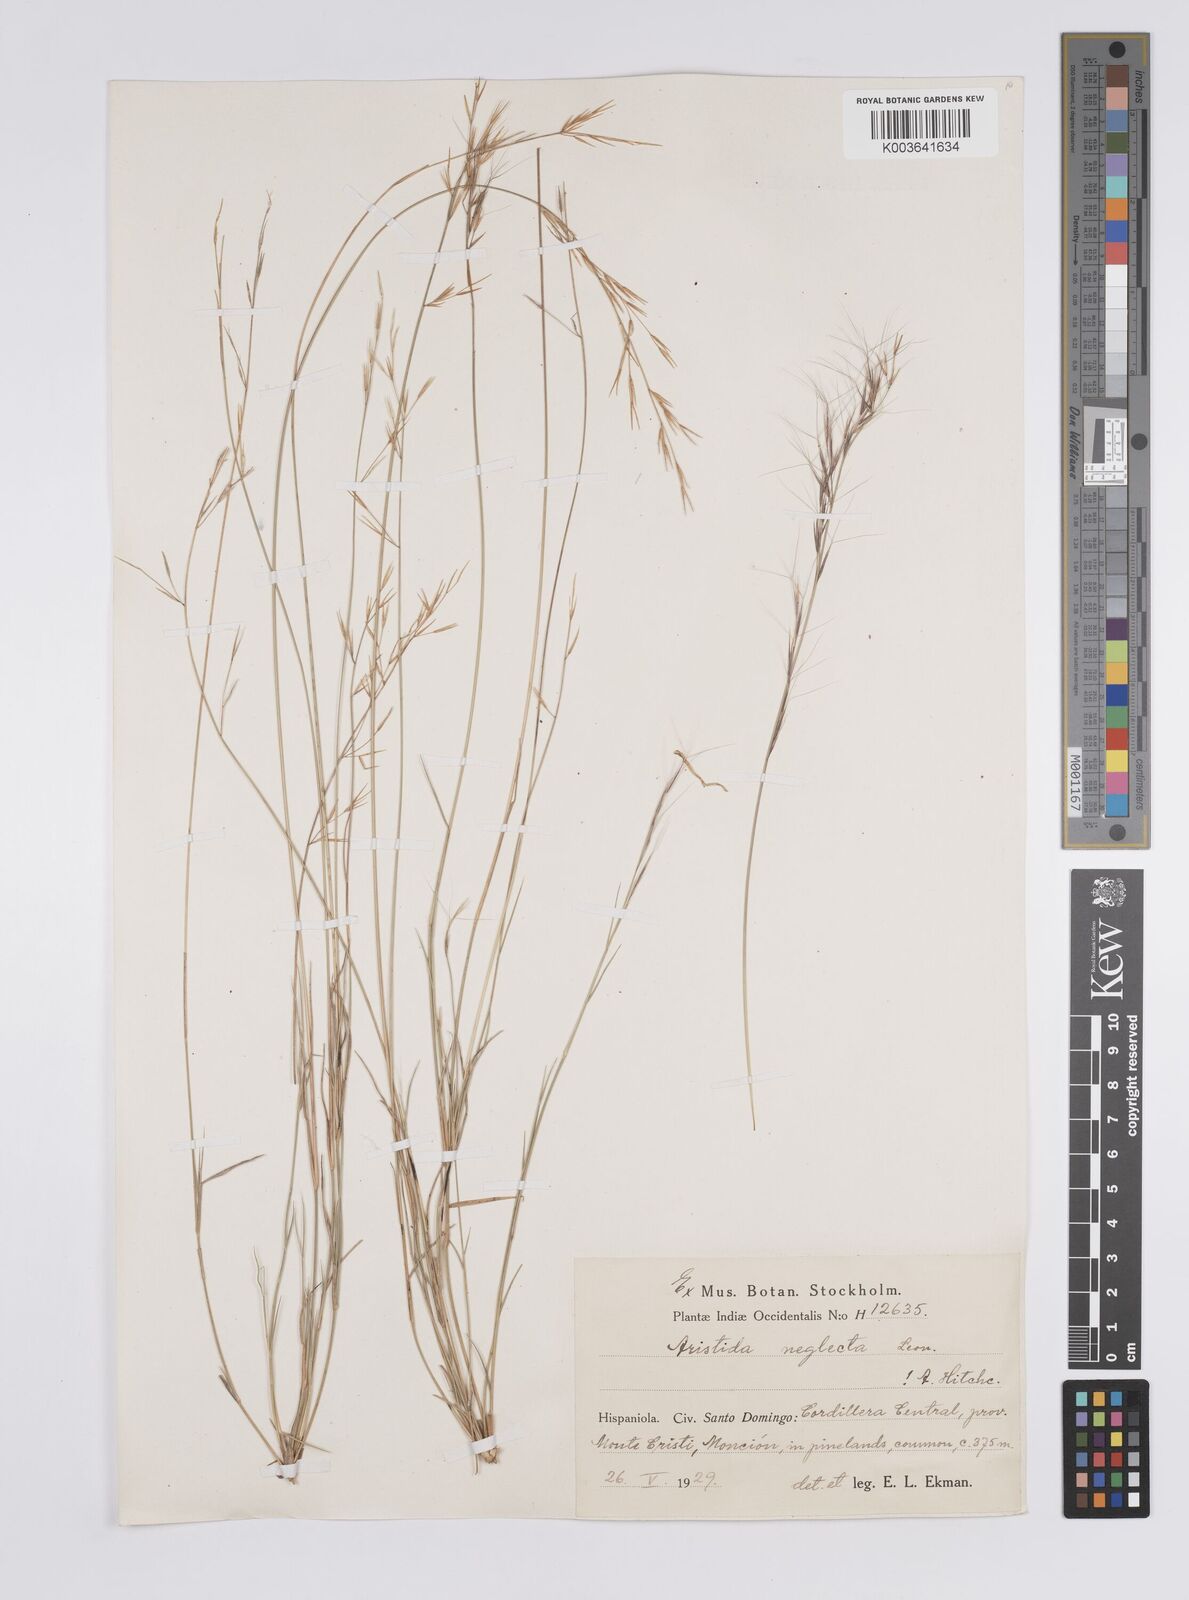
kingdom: Plantae
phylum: Tracheophyta
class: Liliopsida
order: Poales
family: Poaceae
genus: Aristida
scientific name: Aristida neglecta
